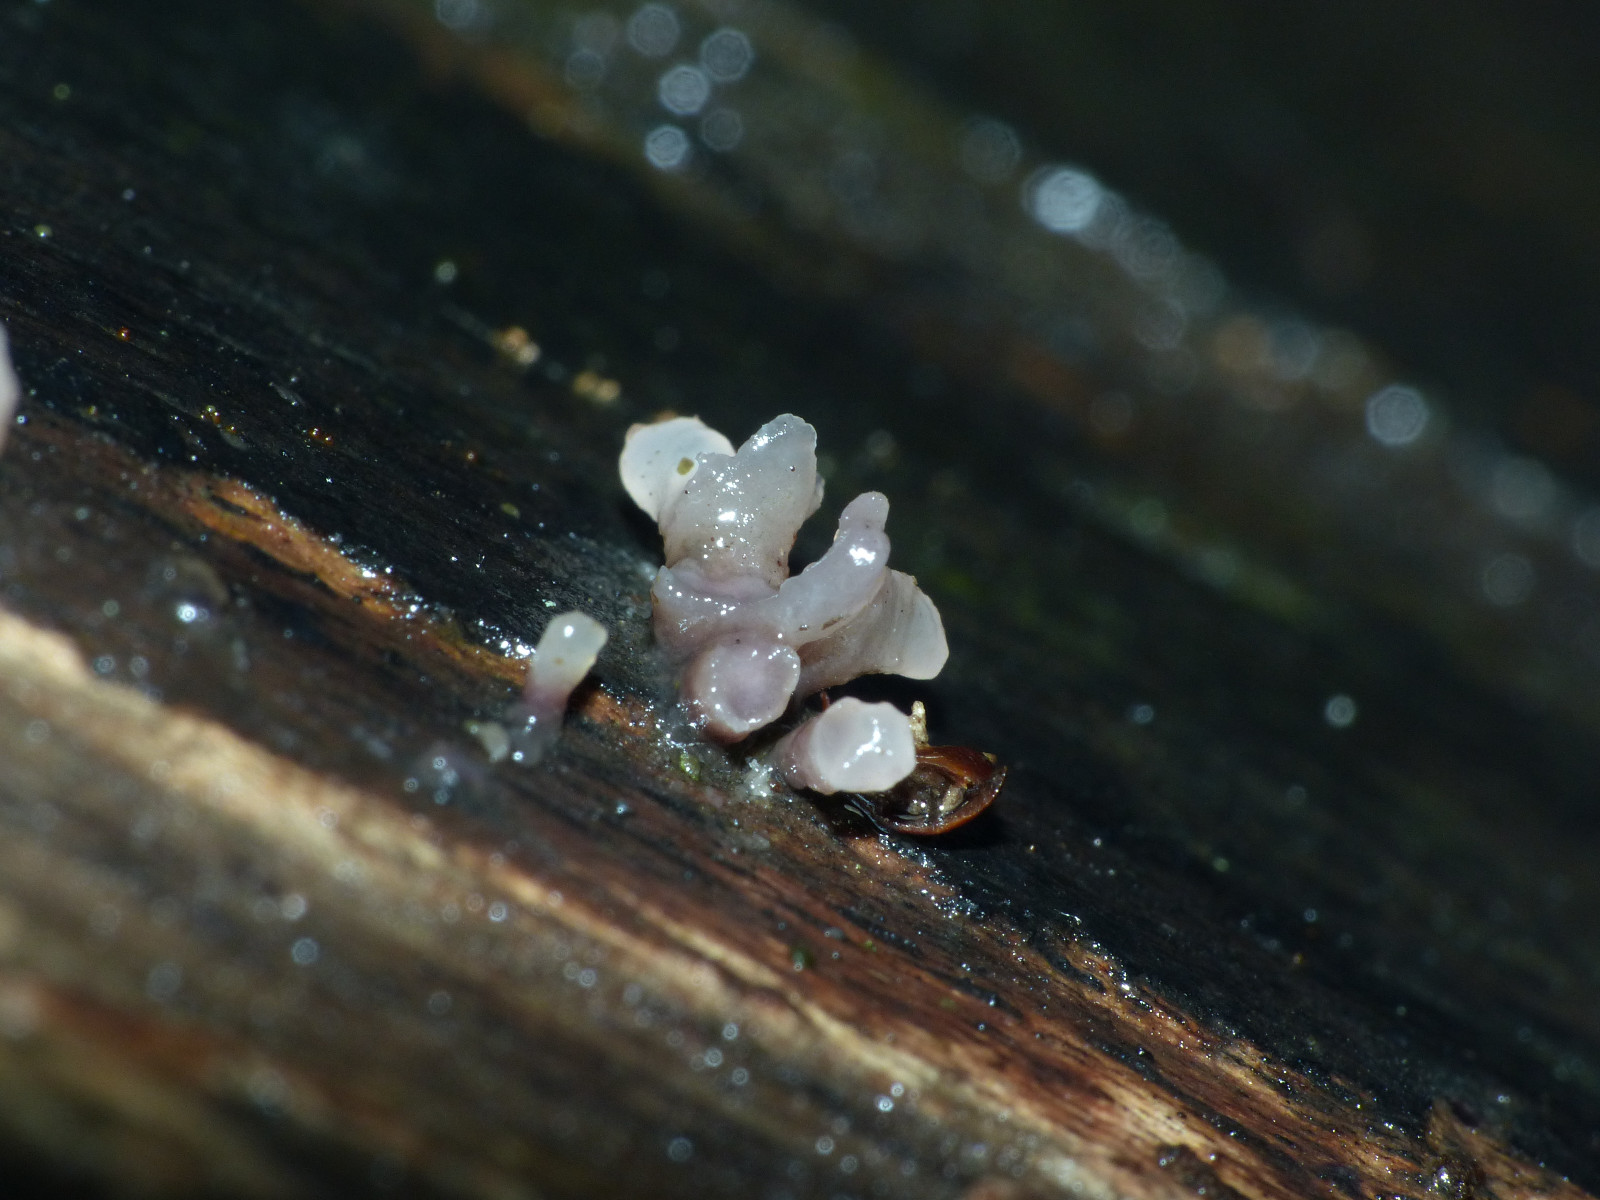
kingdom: Fungi
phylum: Ascomycota
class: Leotiomycetes
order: Helotiales
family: Gelatinodiscaceae
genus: Ascocoryne
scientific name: Ascocoryne
